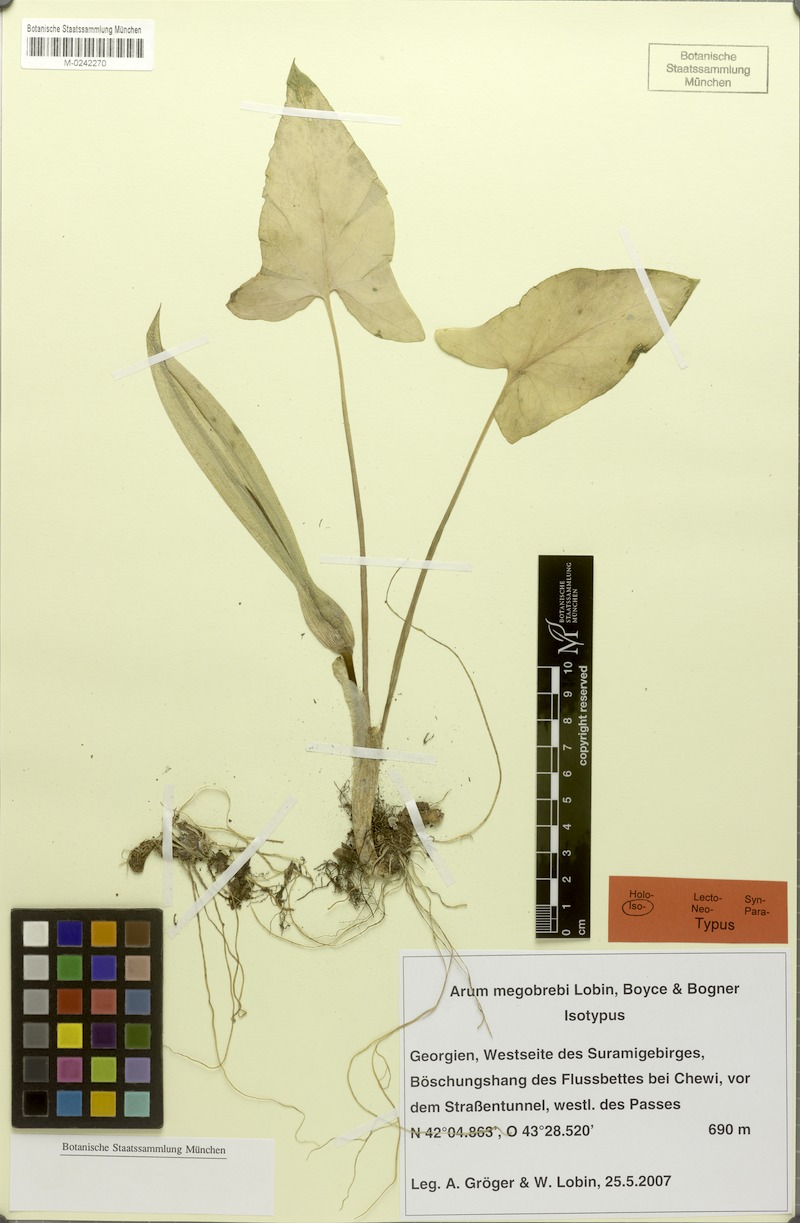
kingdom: Plantae
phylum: Tracheophyta
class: Liliopsida
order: Alismatales
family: Araceae
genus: Arum
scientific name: Arum megobrebi
